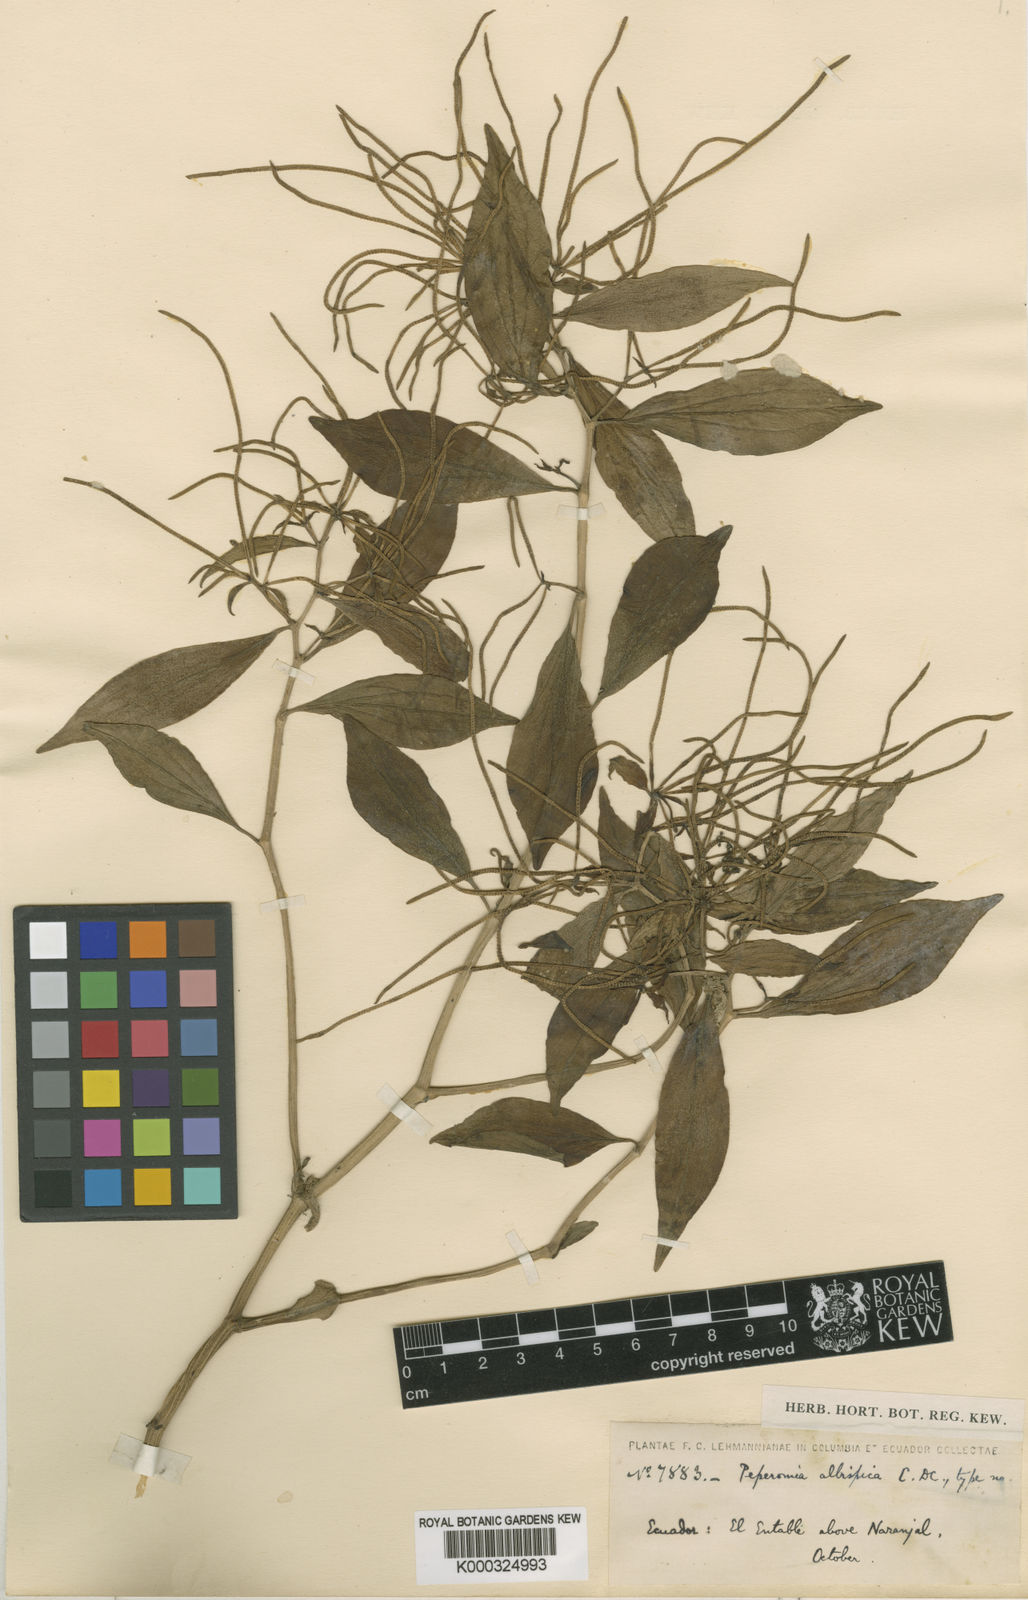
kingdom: Plantae
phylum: Tracheophyta
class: Magnoliopsida
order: Piperales
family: Piperaceae
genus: Peperomia
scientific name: Peperomia chimboana
